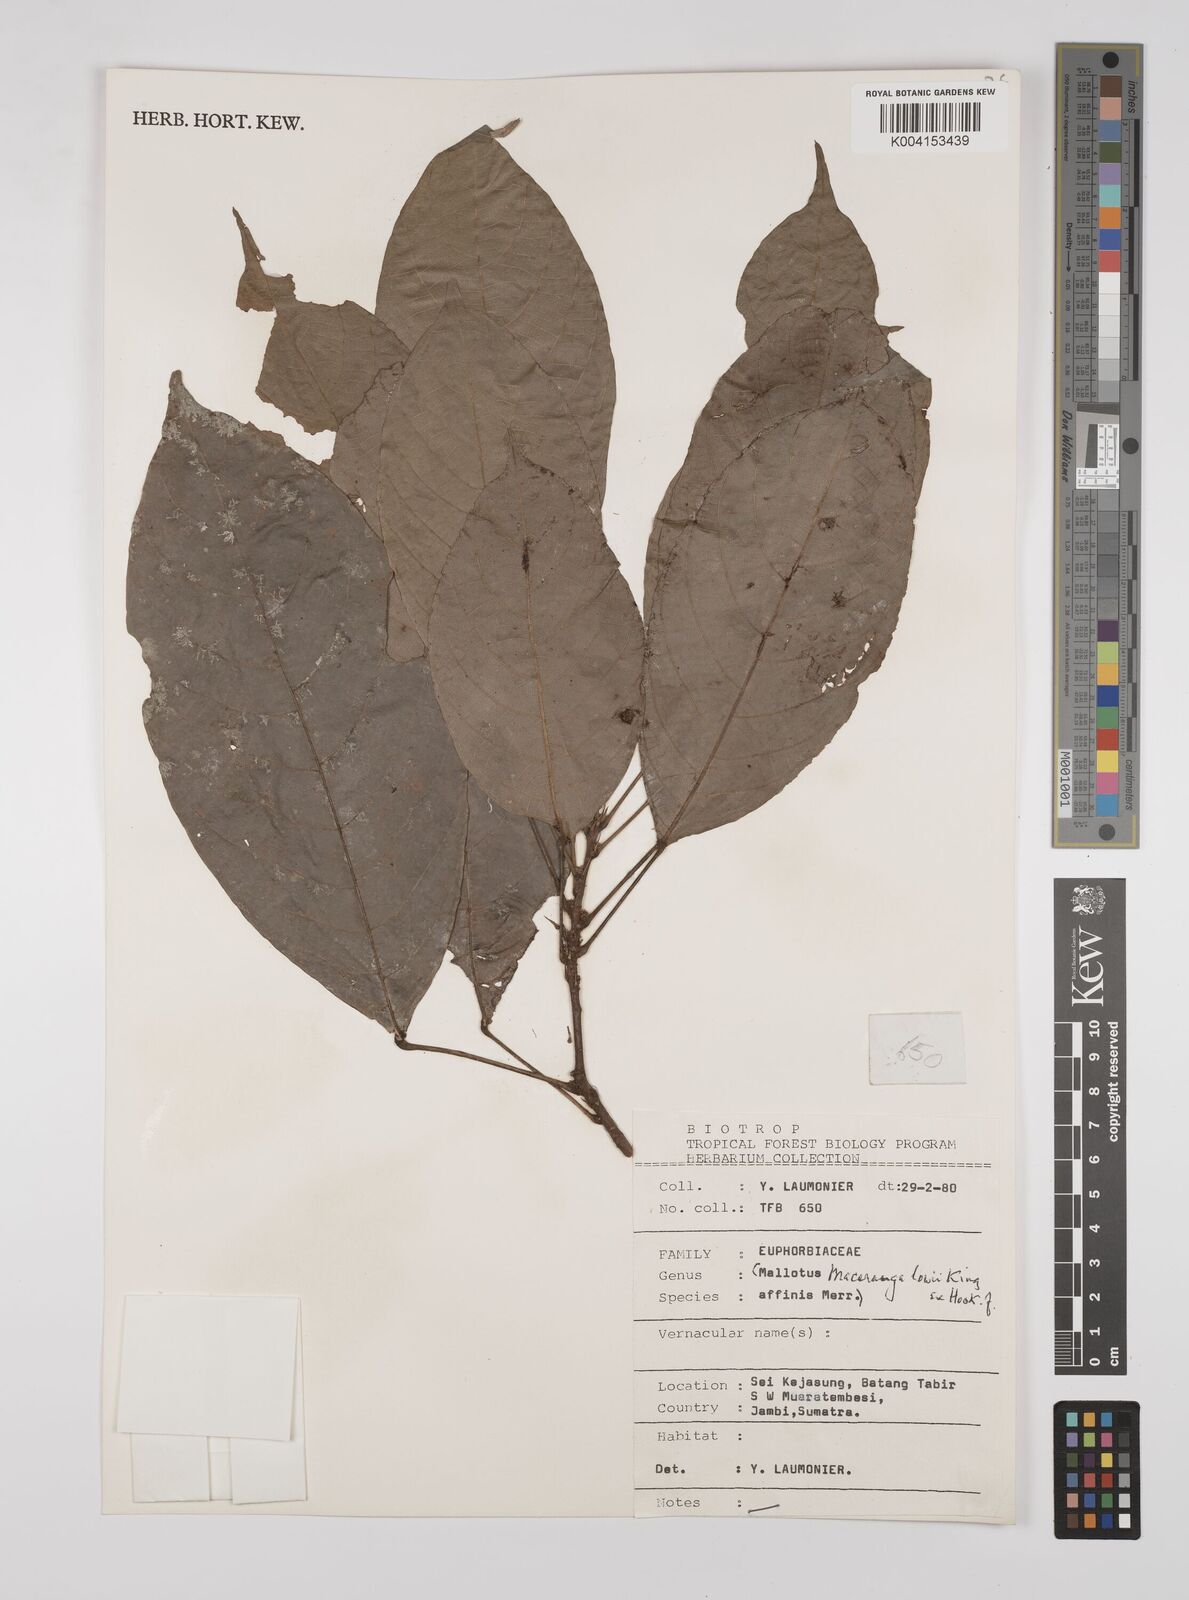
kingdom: Plantae
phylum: Tracheophyta
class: Magnoliopsida
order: Malpighiales
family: Euphorbiaceae
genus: Macaranga
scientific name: Macaranga lowii
